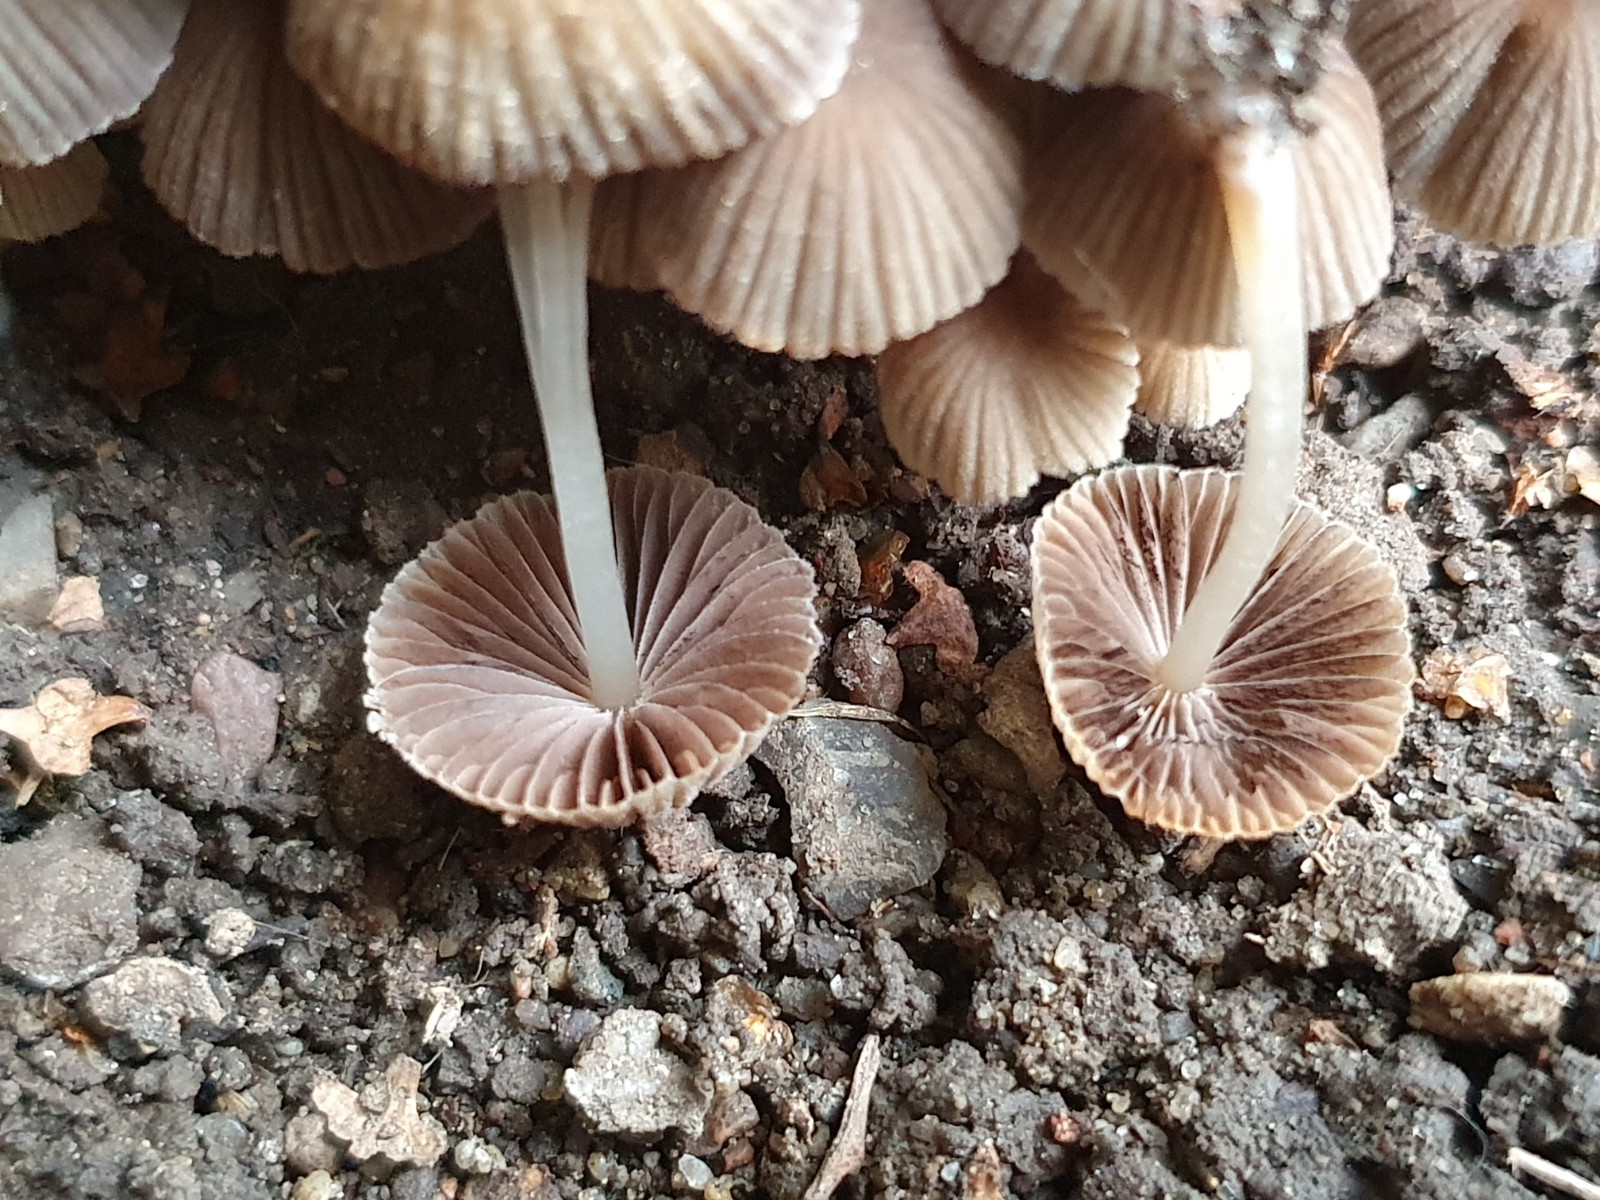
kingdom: Fungi
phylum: Basidiomycota
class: Agaricomycetes
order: Agaricales
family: Psathyrellaceae
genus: Coprinellus
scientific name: Coprinellus disseminatus
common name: bredsået blækhat
